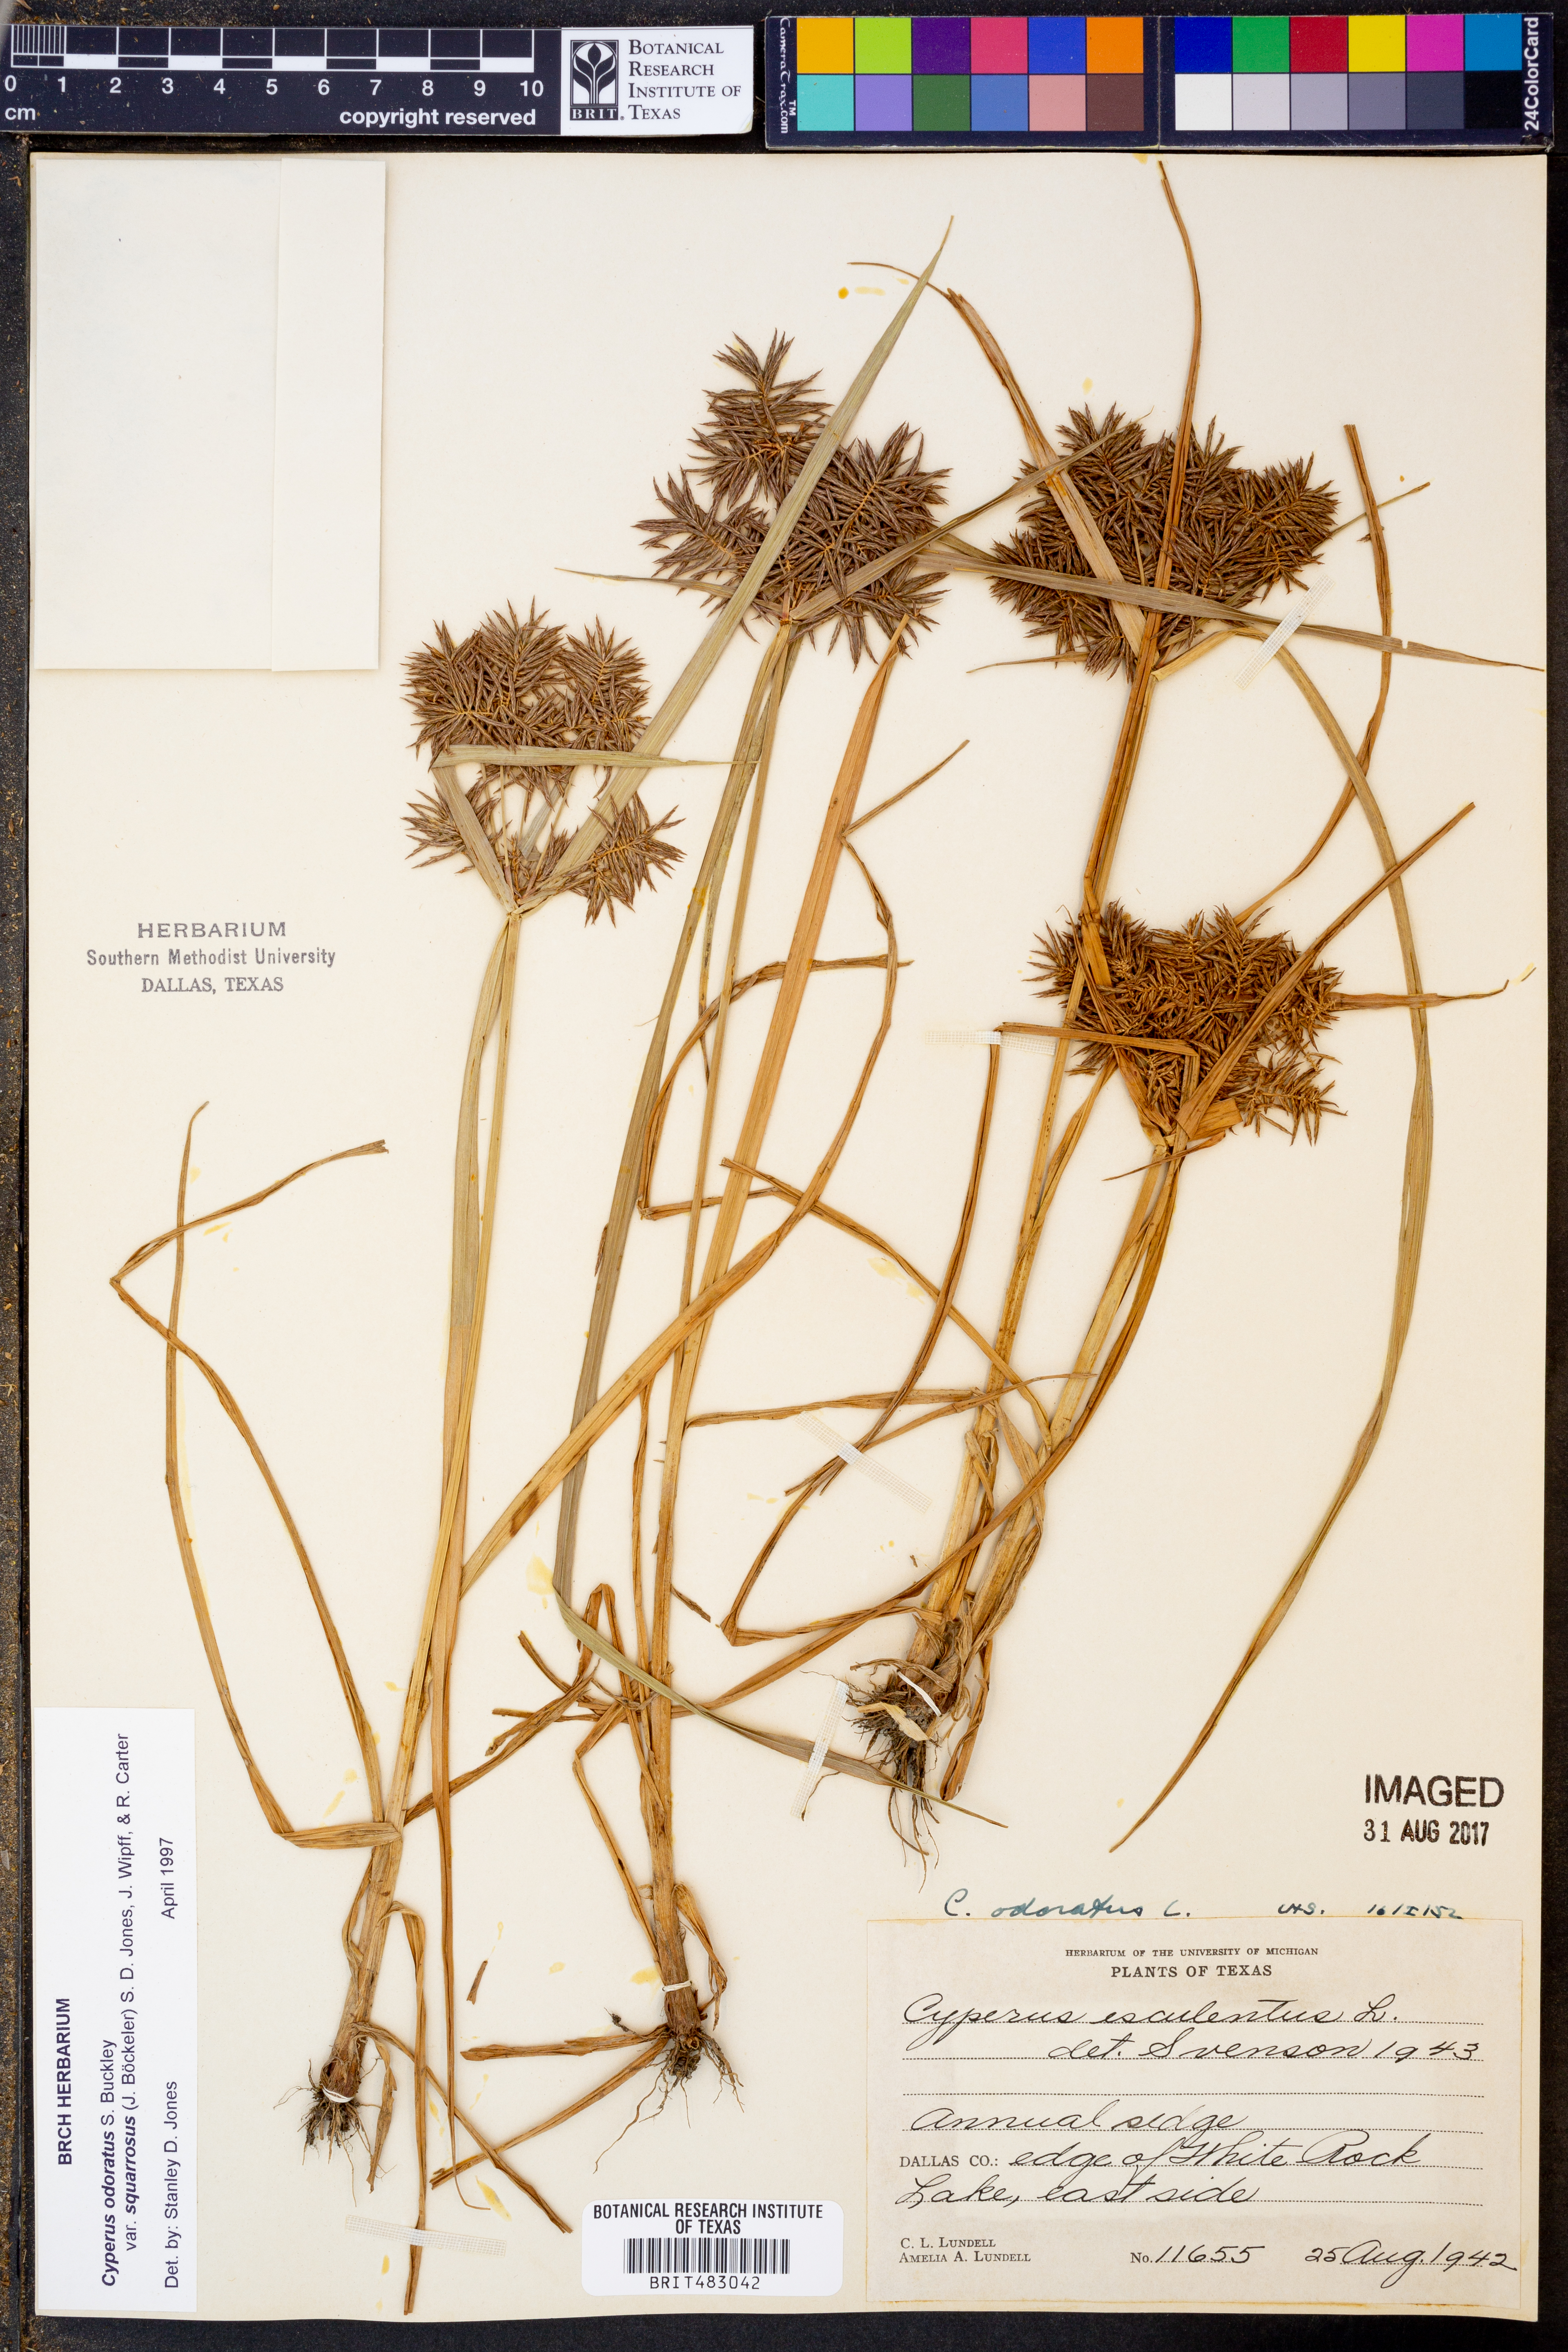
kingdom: Plantae
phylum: Tracheophyta
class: Liliopsida
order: Poales
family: Cyperaceae
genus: Cyperus
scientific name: Cyperus odoratus
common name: Fragrant flatsedge
